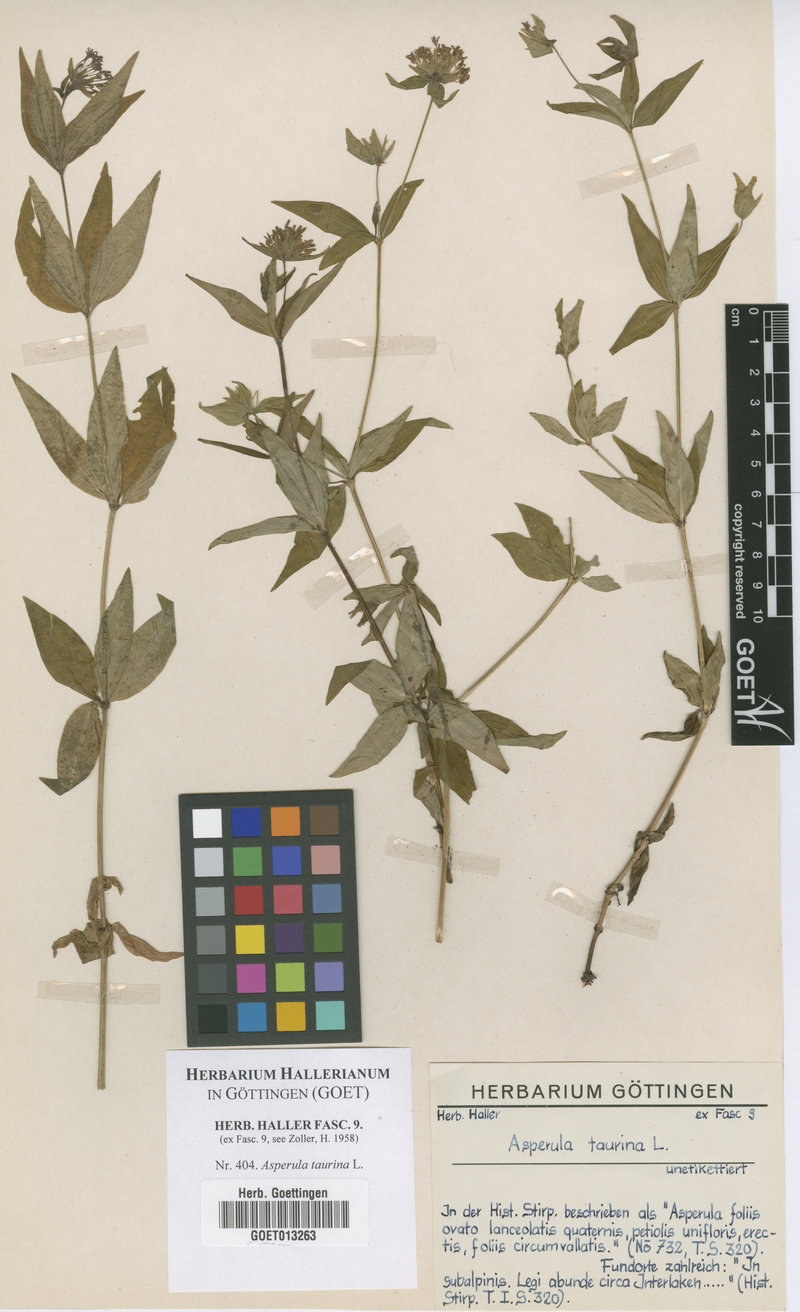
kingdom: Plantae
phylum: Tracheophyta
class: Magnoliopsida
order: Gentianales
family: Rubiaceae
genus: Asperula
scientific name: Asperula taurina
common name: Pink woodruff
